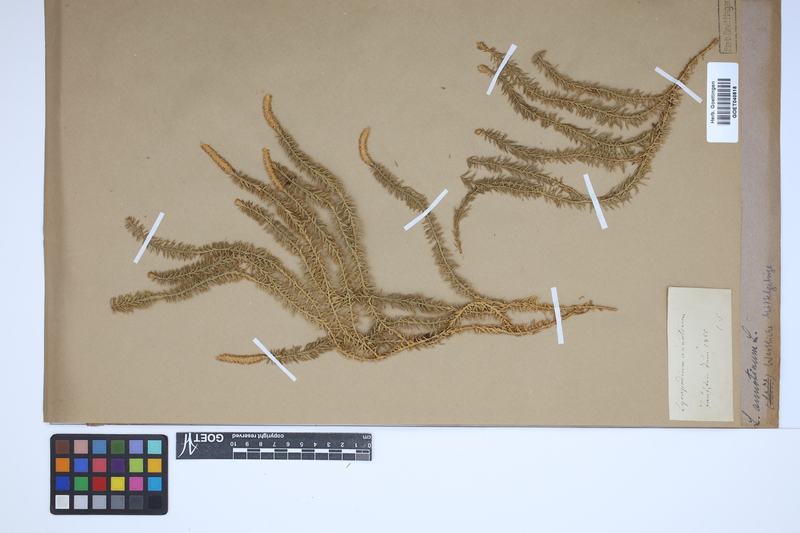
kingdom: Plantae
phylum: Tracheophyta
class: Lycopodiopsida
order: Lycopodiales
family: Lycopodiaceae
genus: Spinulum
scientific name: Spinulum annotinum
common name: Interrupted club-moss
